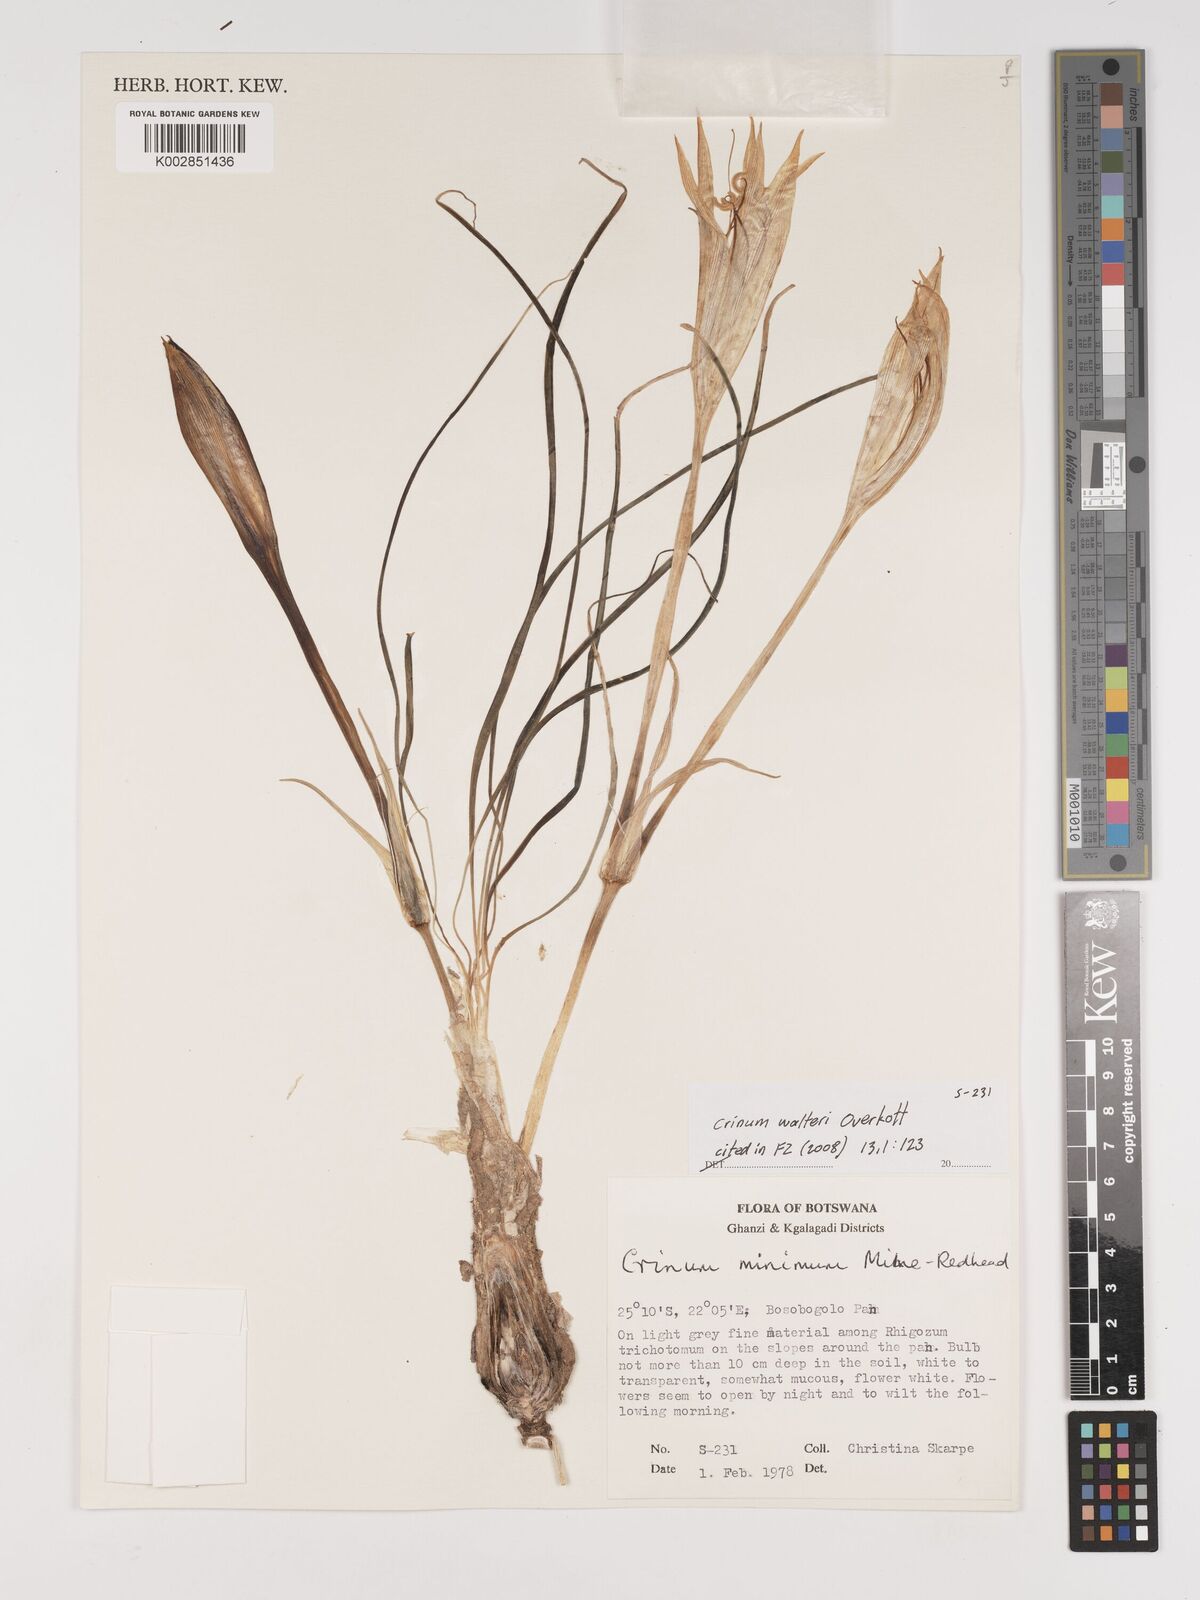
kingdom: Plantae
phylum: Tracheophyta
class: Liliopsida
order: Asparagales
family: Amaryllidaceae
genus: Crinum
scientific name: Crinum walteri
